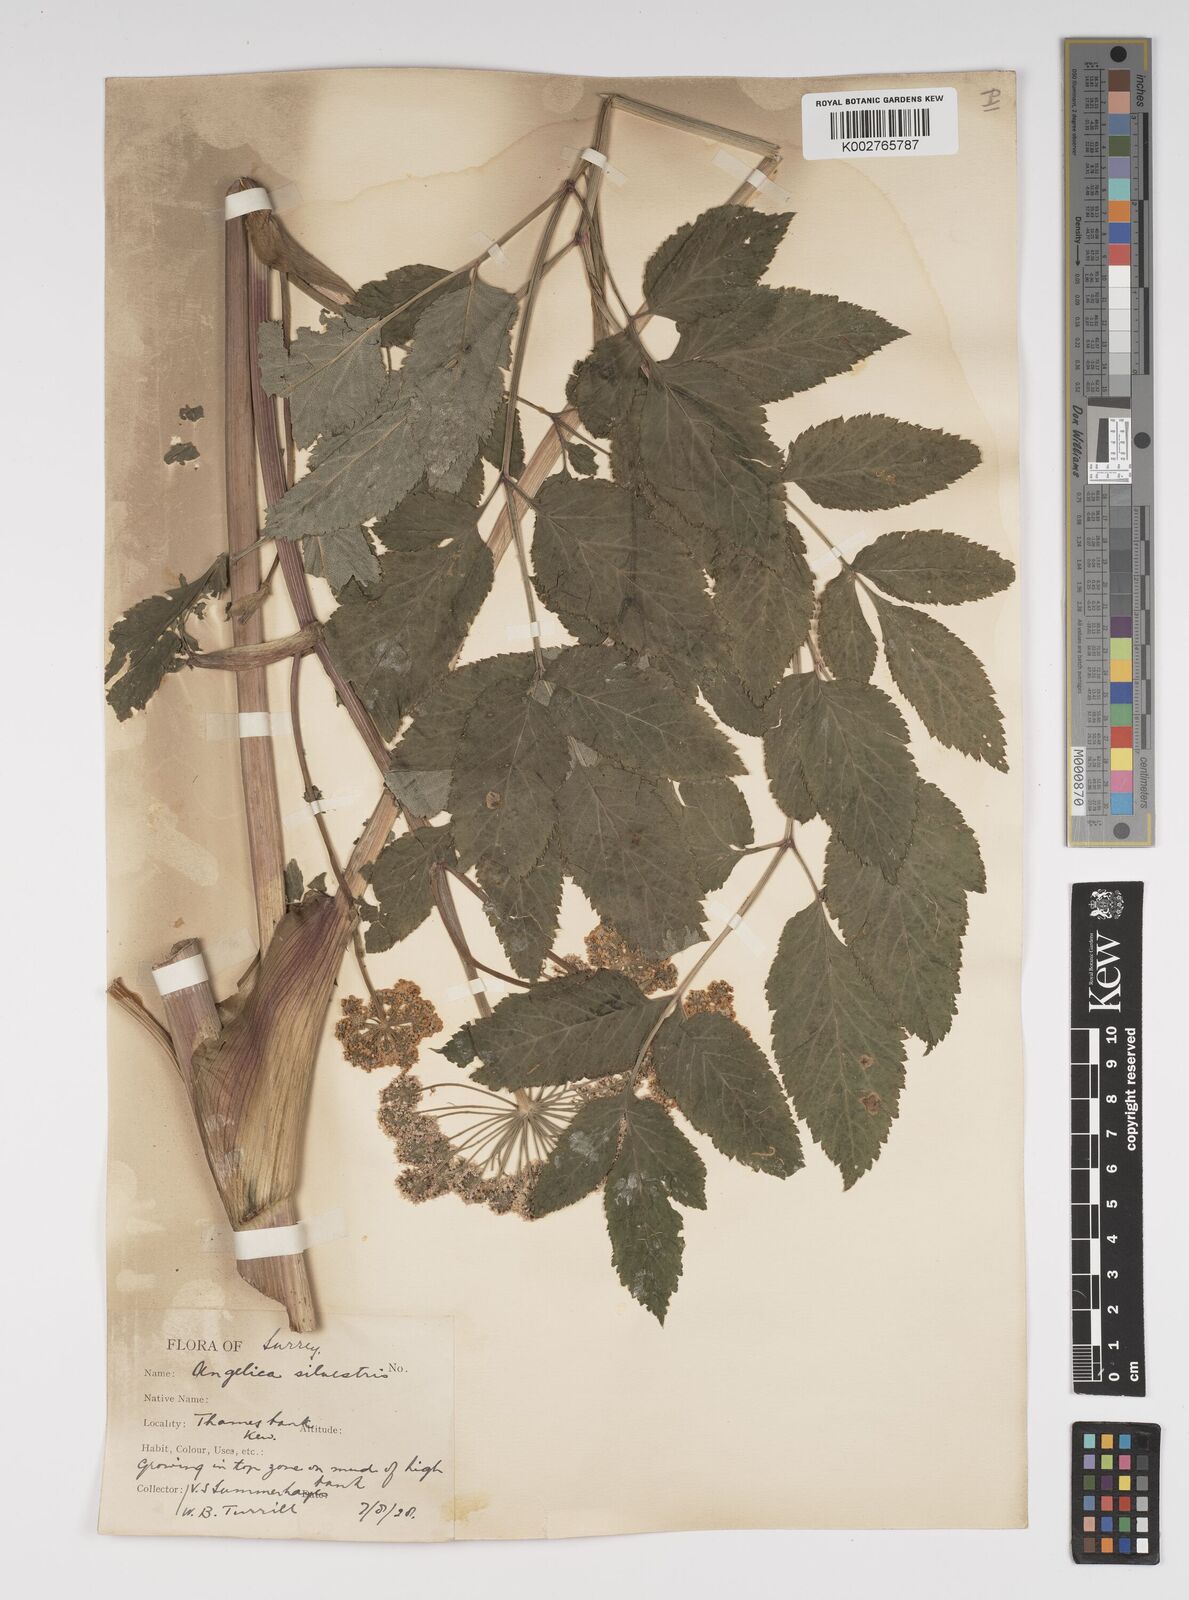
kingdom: Plantae
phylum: Tracheophyta
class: Magnoliopsida
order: Apiales
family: Apiaceae
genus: Angelica
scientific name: Angelica sylvestris
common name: Wild angelica
